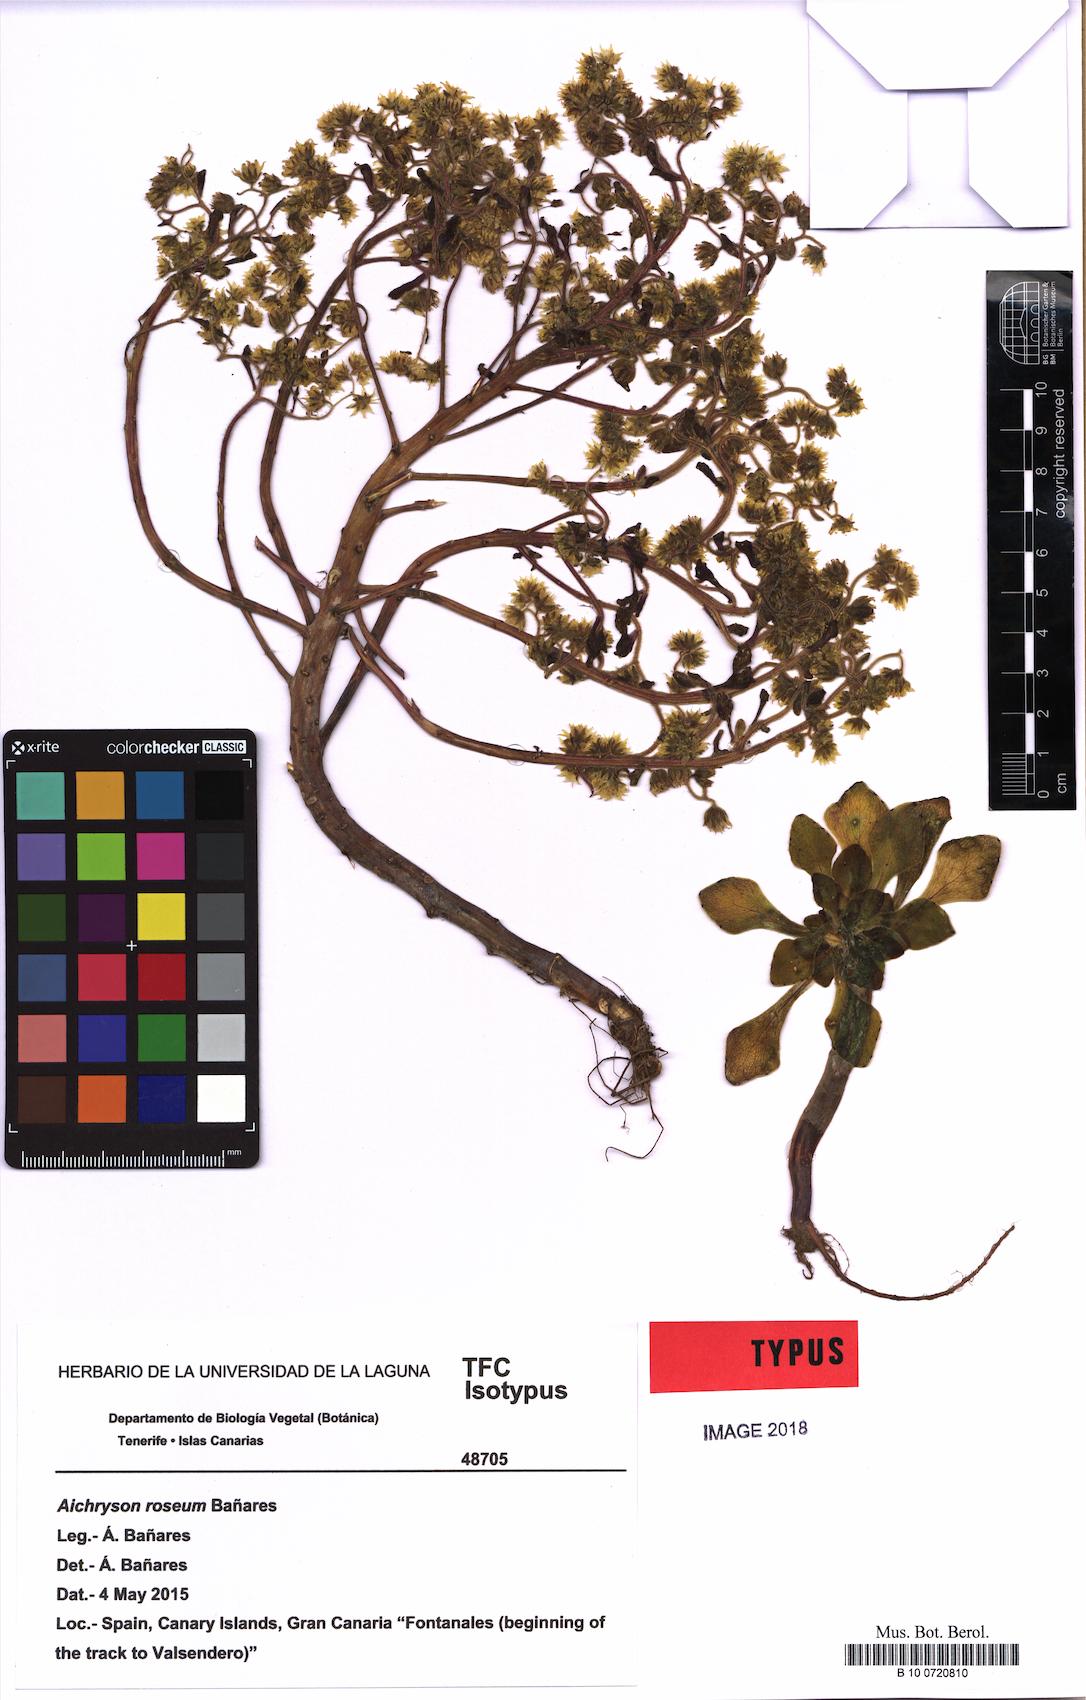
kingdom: Plantae
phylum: Tracheophyta
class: Magnoliopsida
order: Saxifragales
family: Crassulaceae
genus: Aichryson
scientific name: Aichryson roseum
